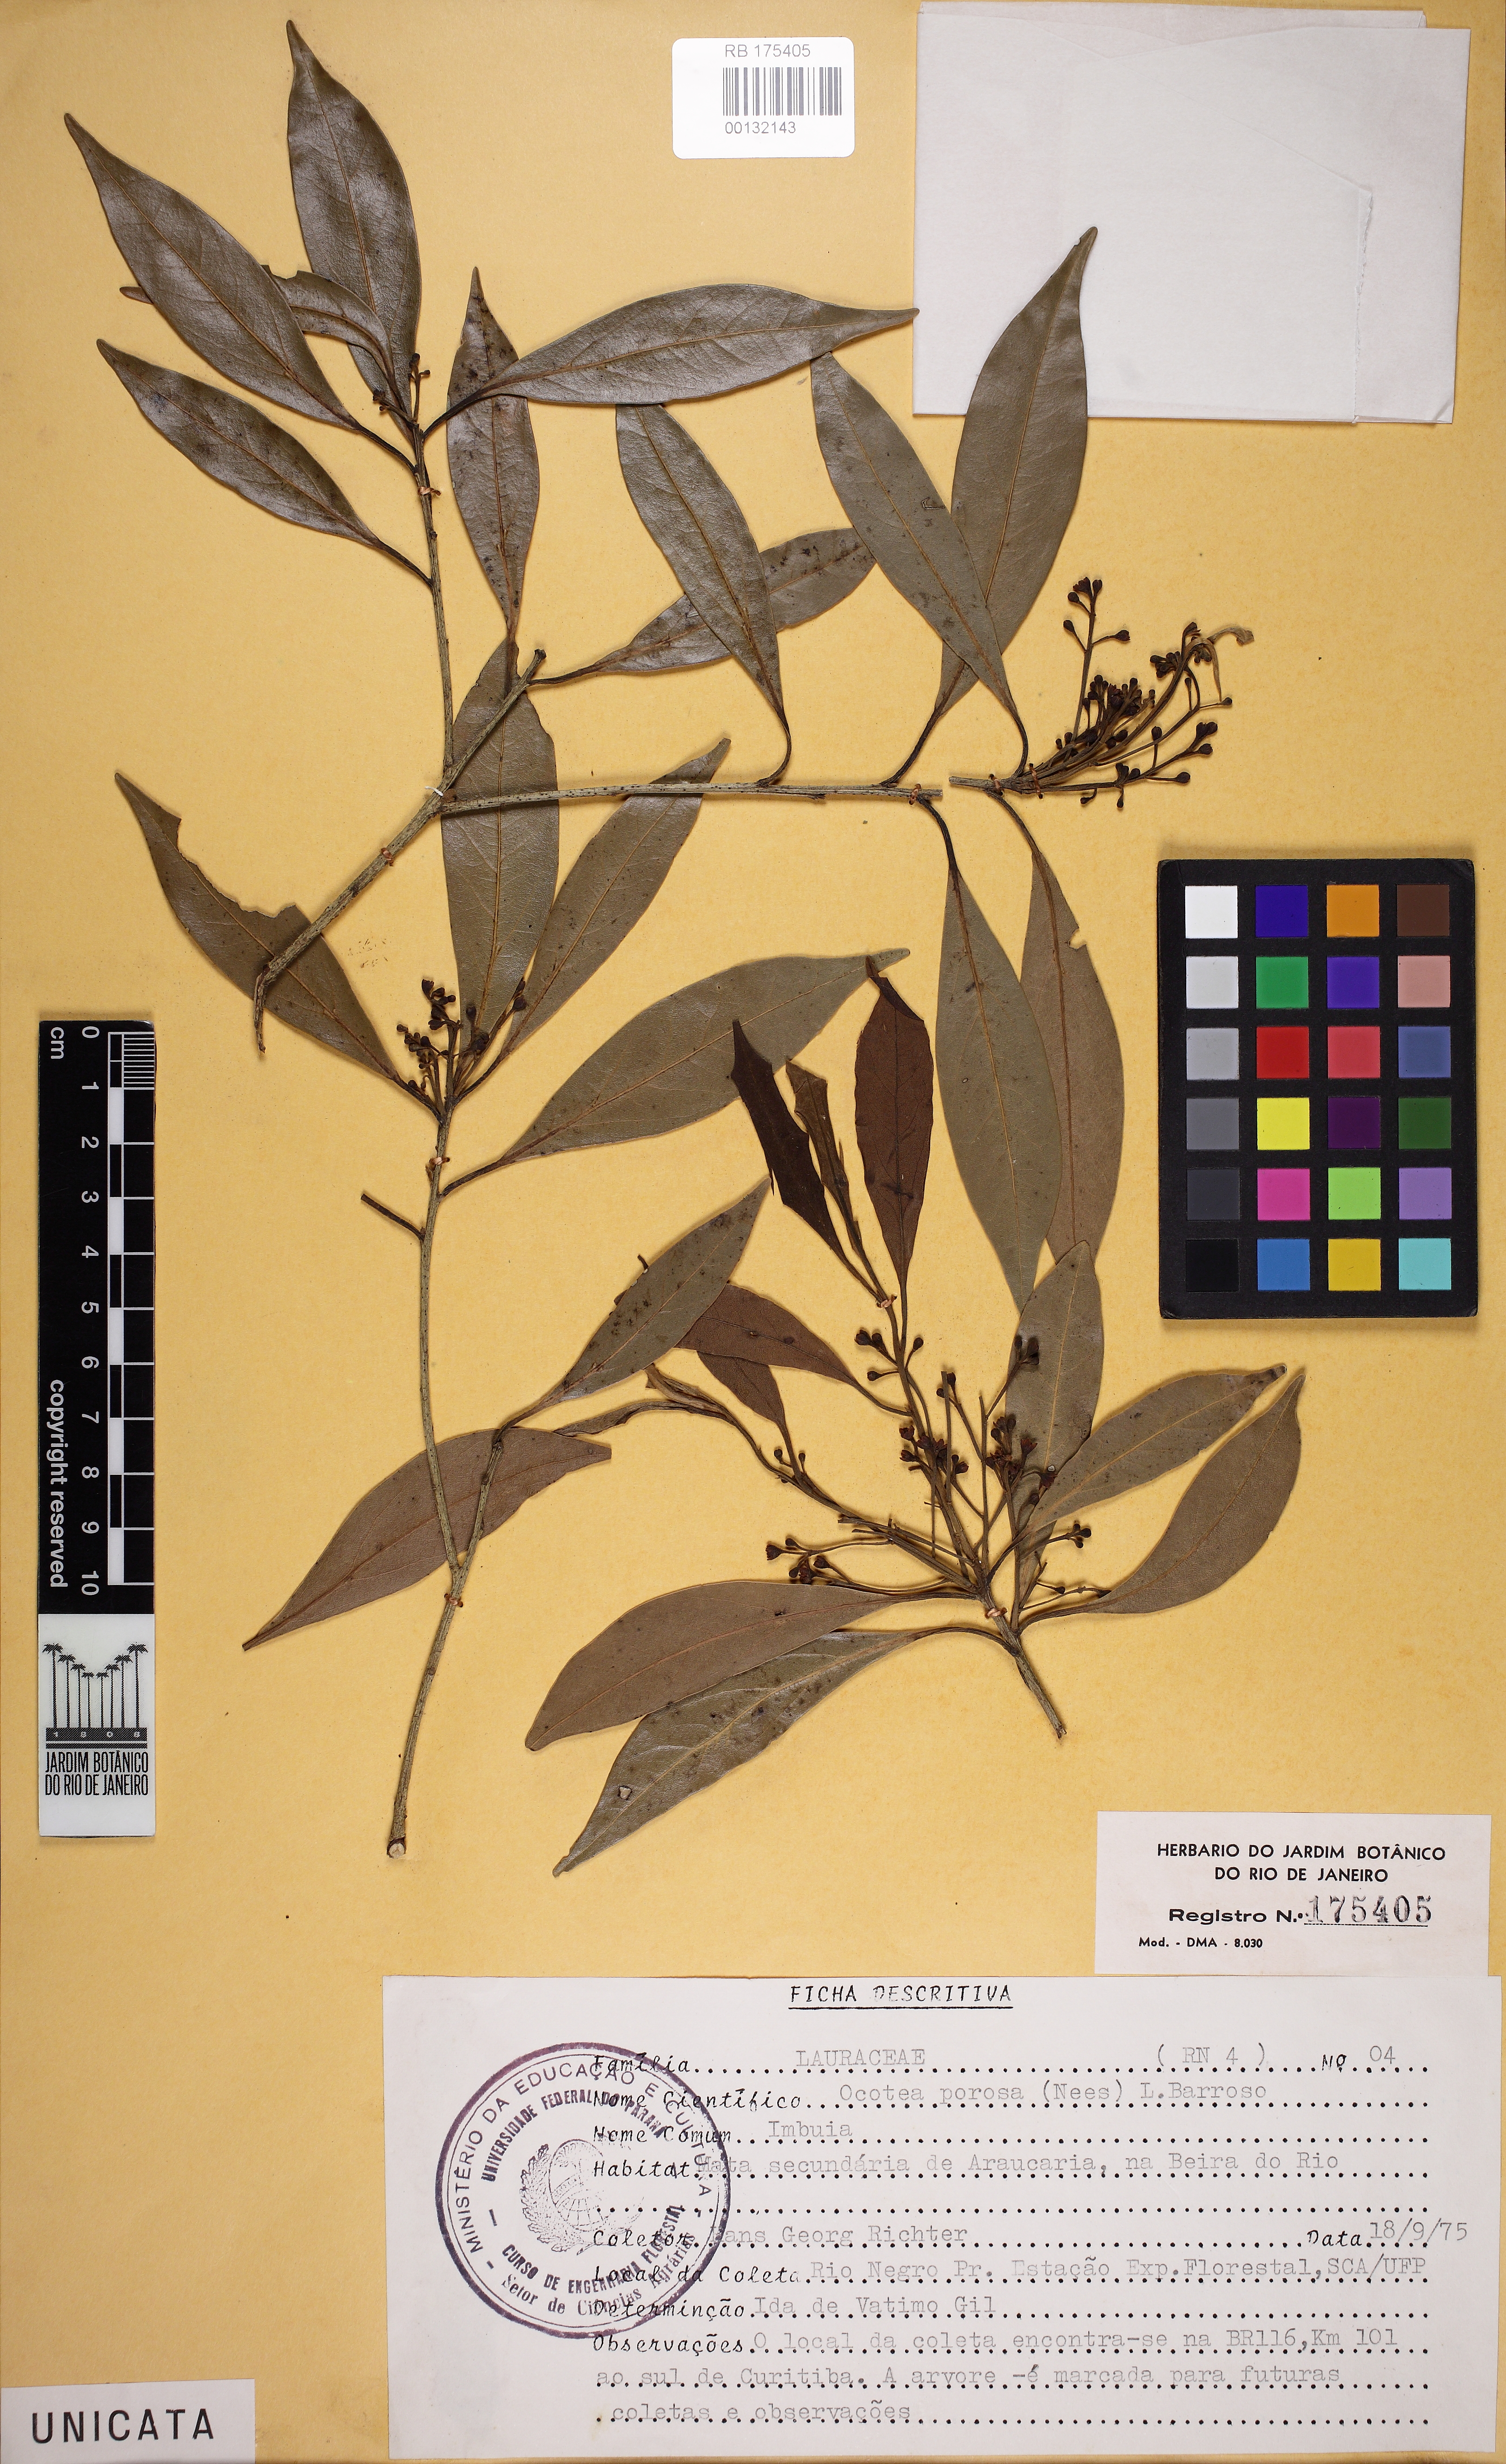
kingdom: Plantae
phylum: Tracheophyta
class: Magnoliopsida
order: Laurales
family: Lauraceae
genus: Ocotea
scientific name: Ocotea porosa
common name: Brazilian-walnut
